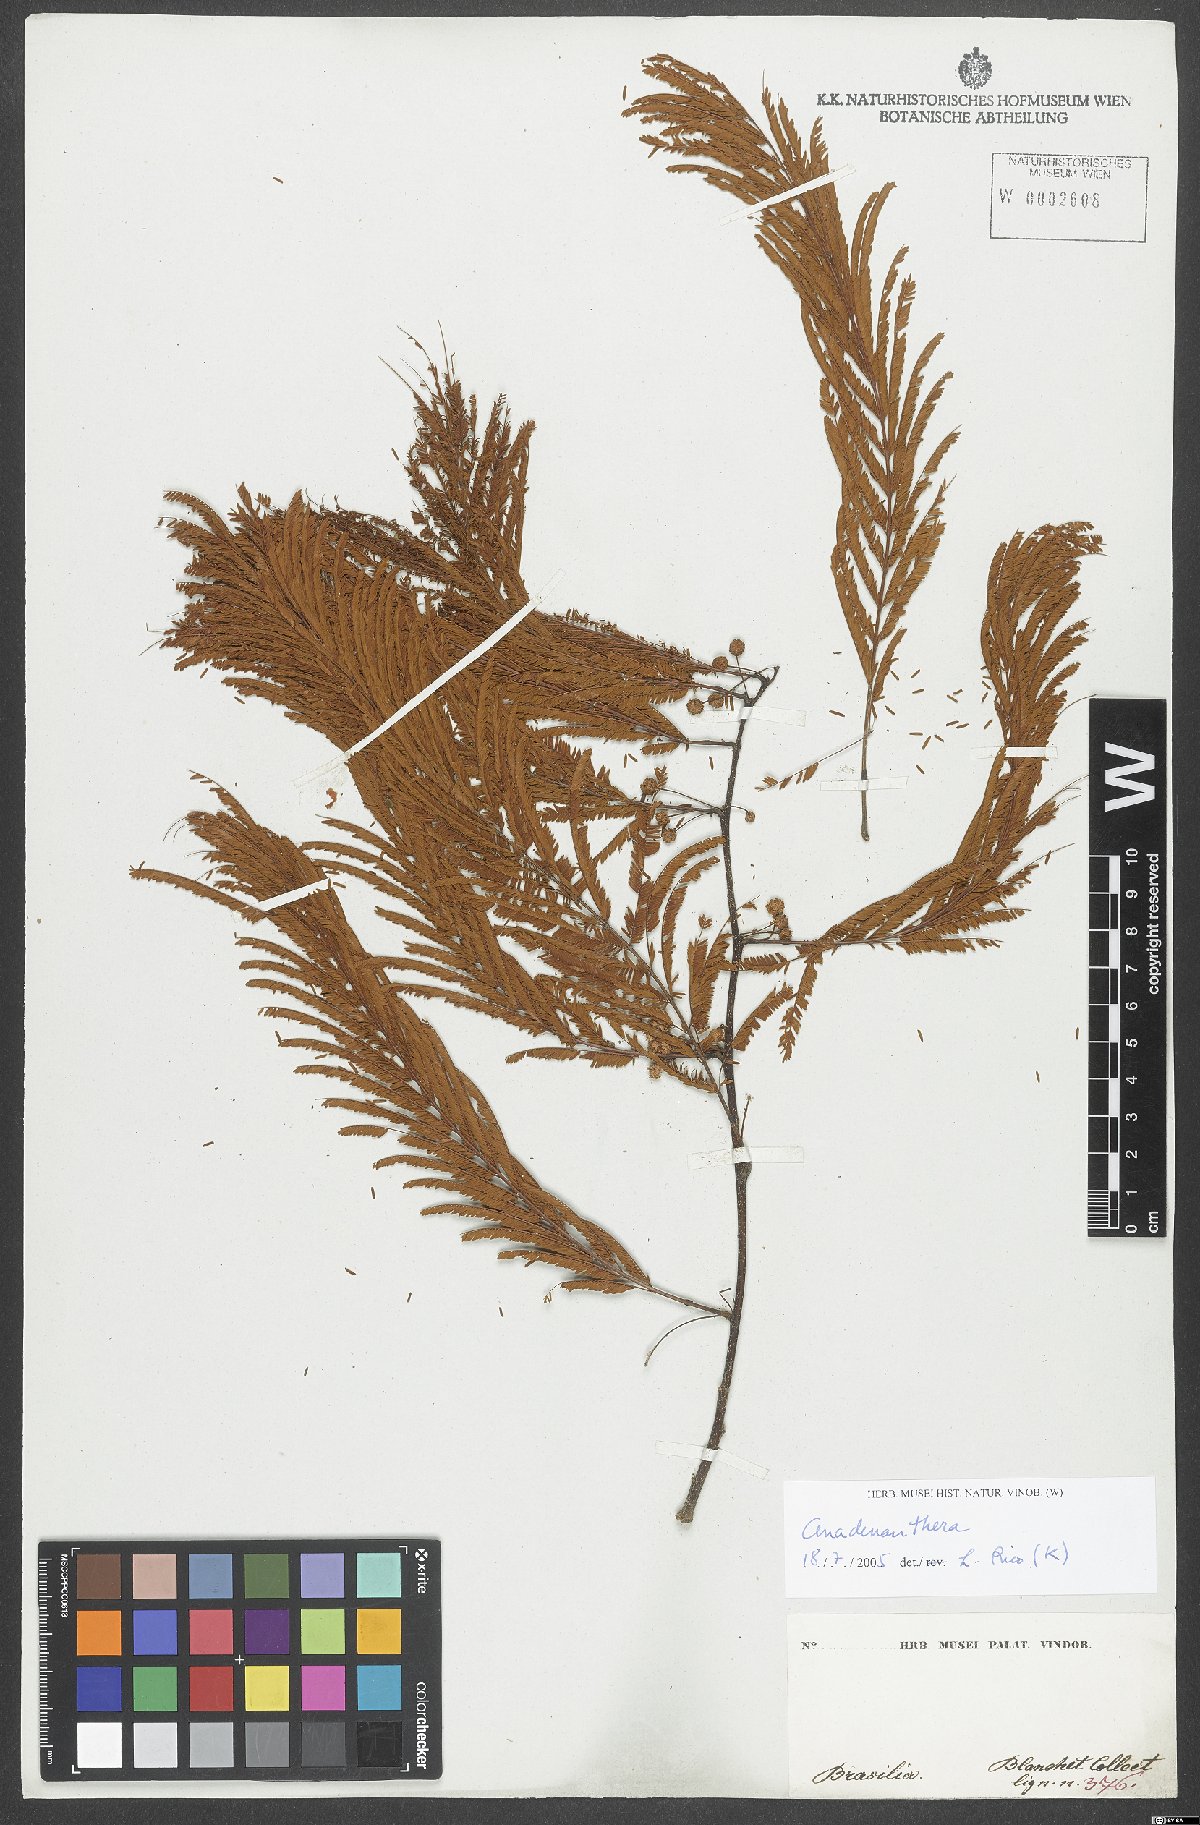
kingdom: Plantae
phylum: Tracheophyta
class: Magnoliopsida
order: Fabales
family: Fabaceae
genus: Anadenanthera
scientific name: Anadenanthera
